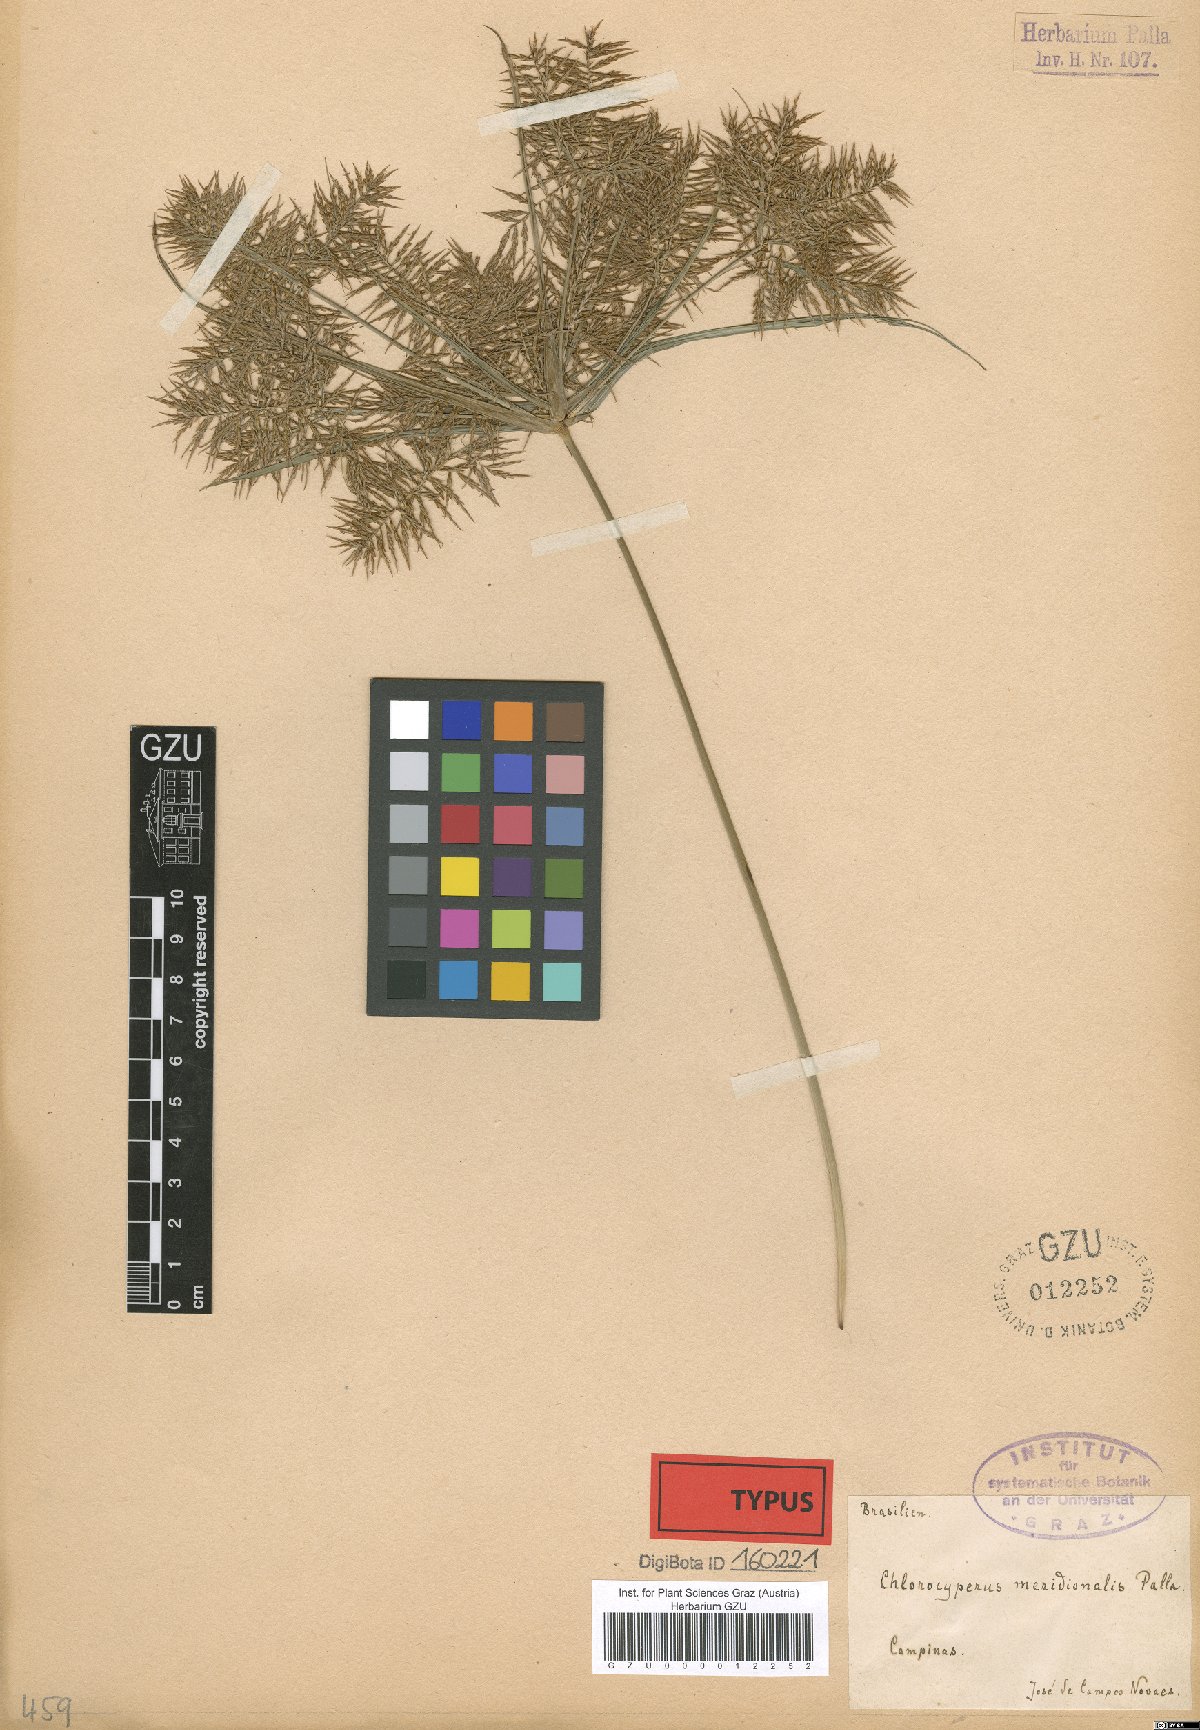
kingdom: Plantae
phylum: Tracheophyta
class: Liliopsida
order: Poales
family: Cyperaceae
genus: Cyperus
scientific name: Cyperus pohlii
